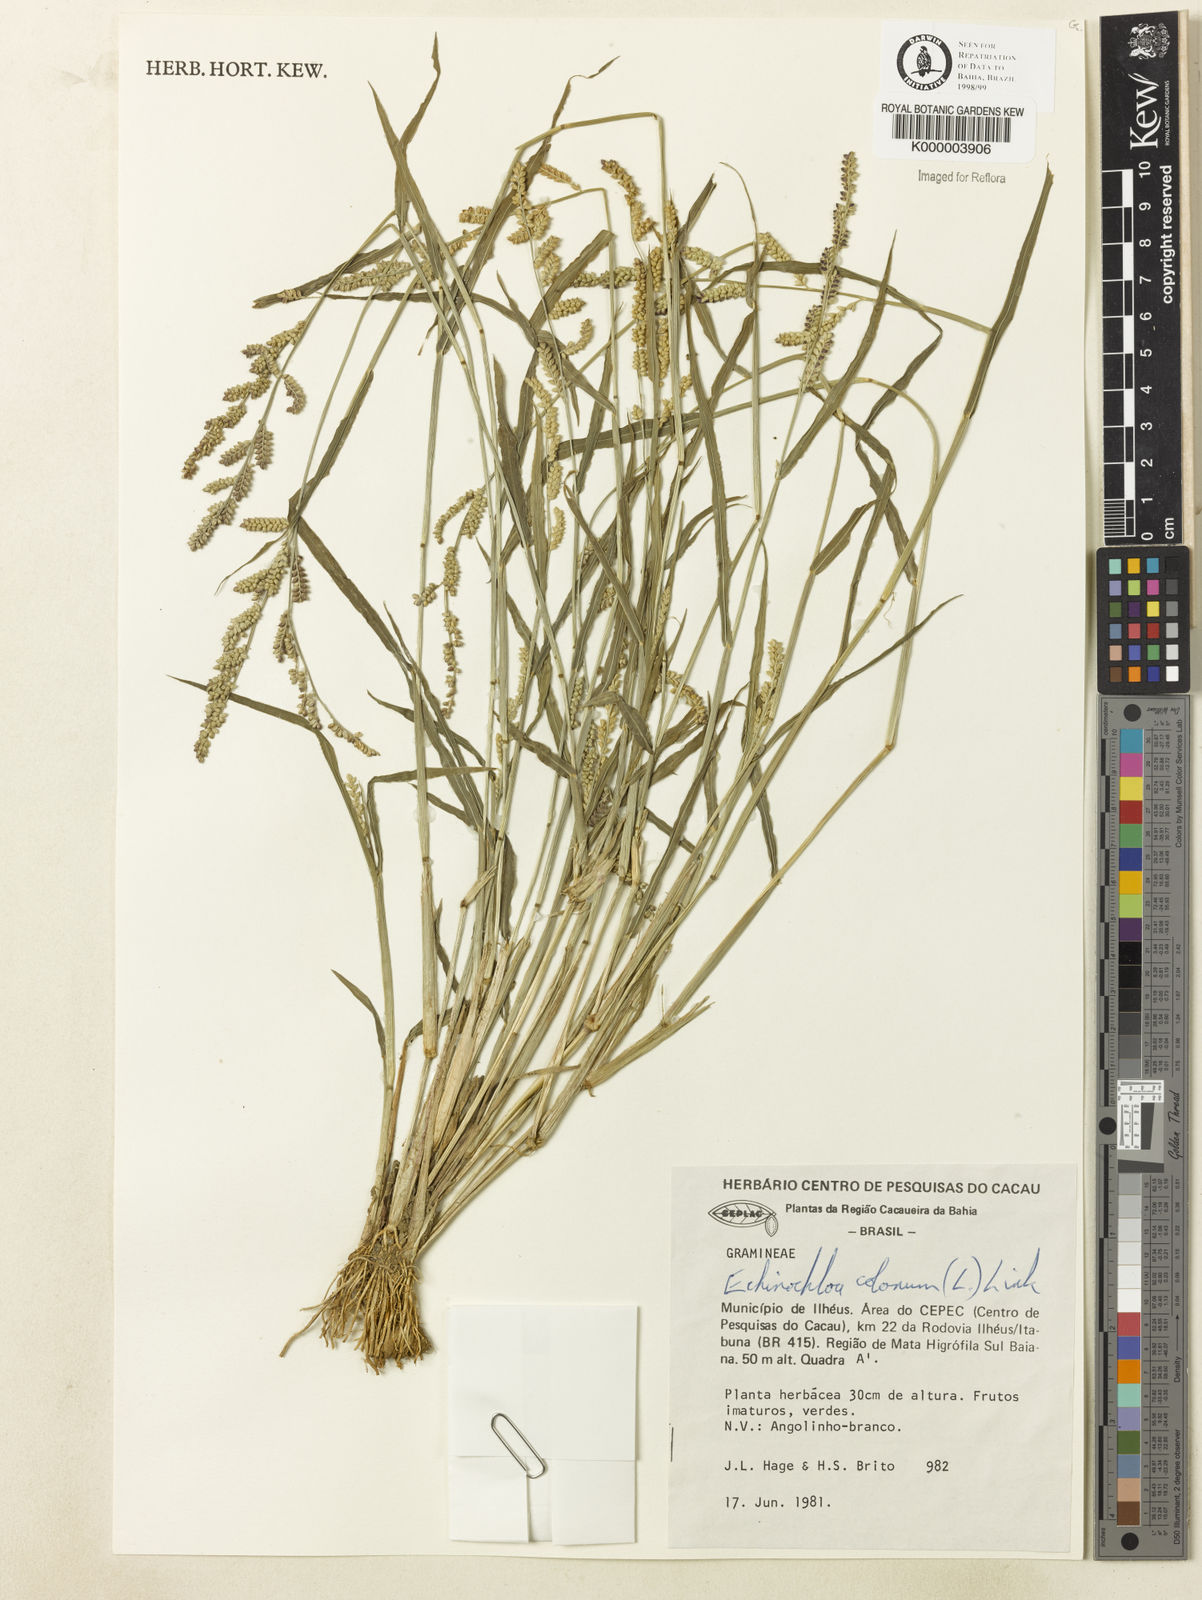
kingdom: Plantae
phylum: Tracheophyta
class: Liliopsida
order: Poales
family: Poaceae
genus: Echinochloa
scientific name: Echinochloa colonum
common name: Jungle rice
